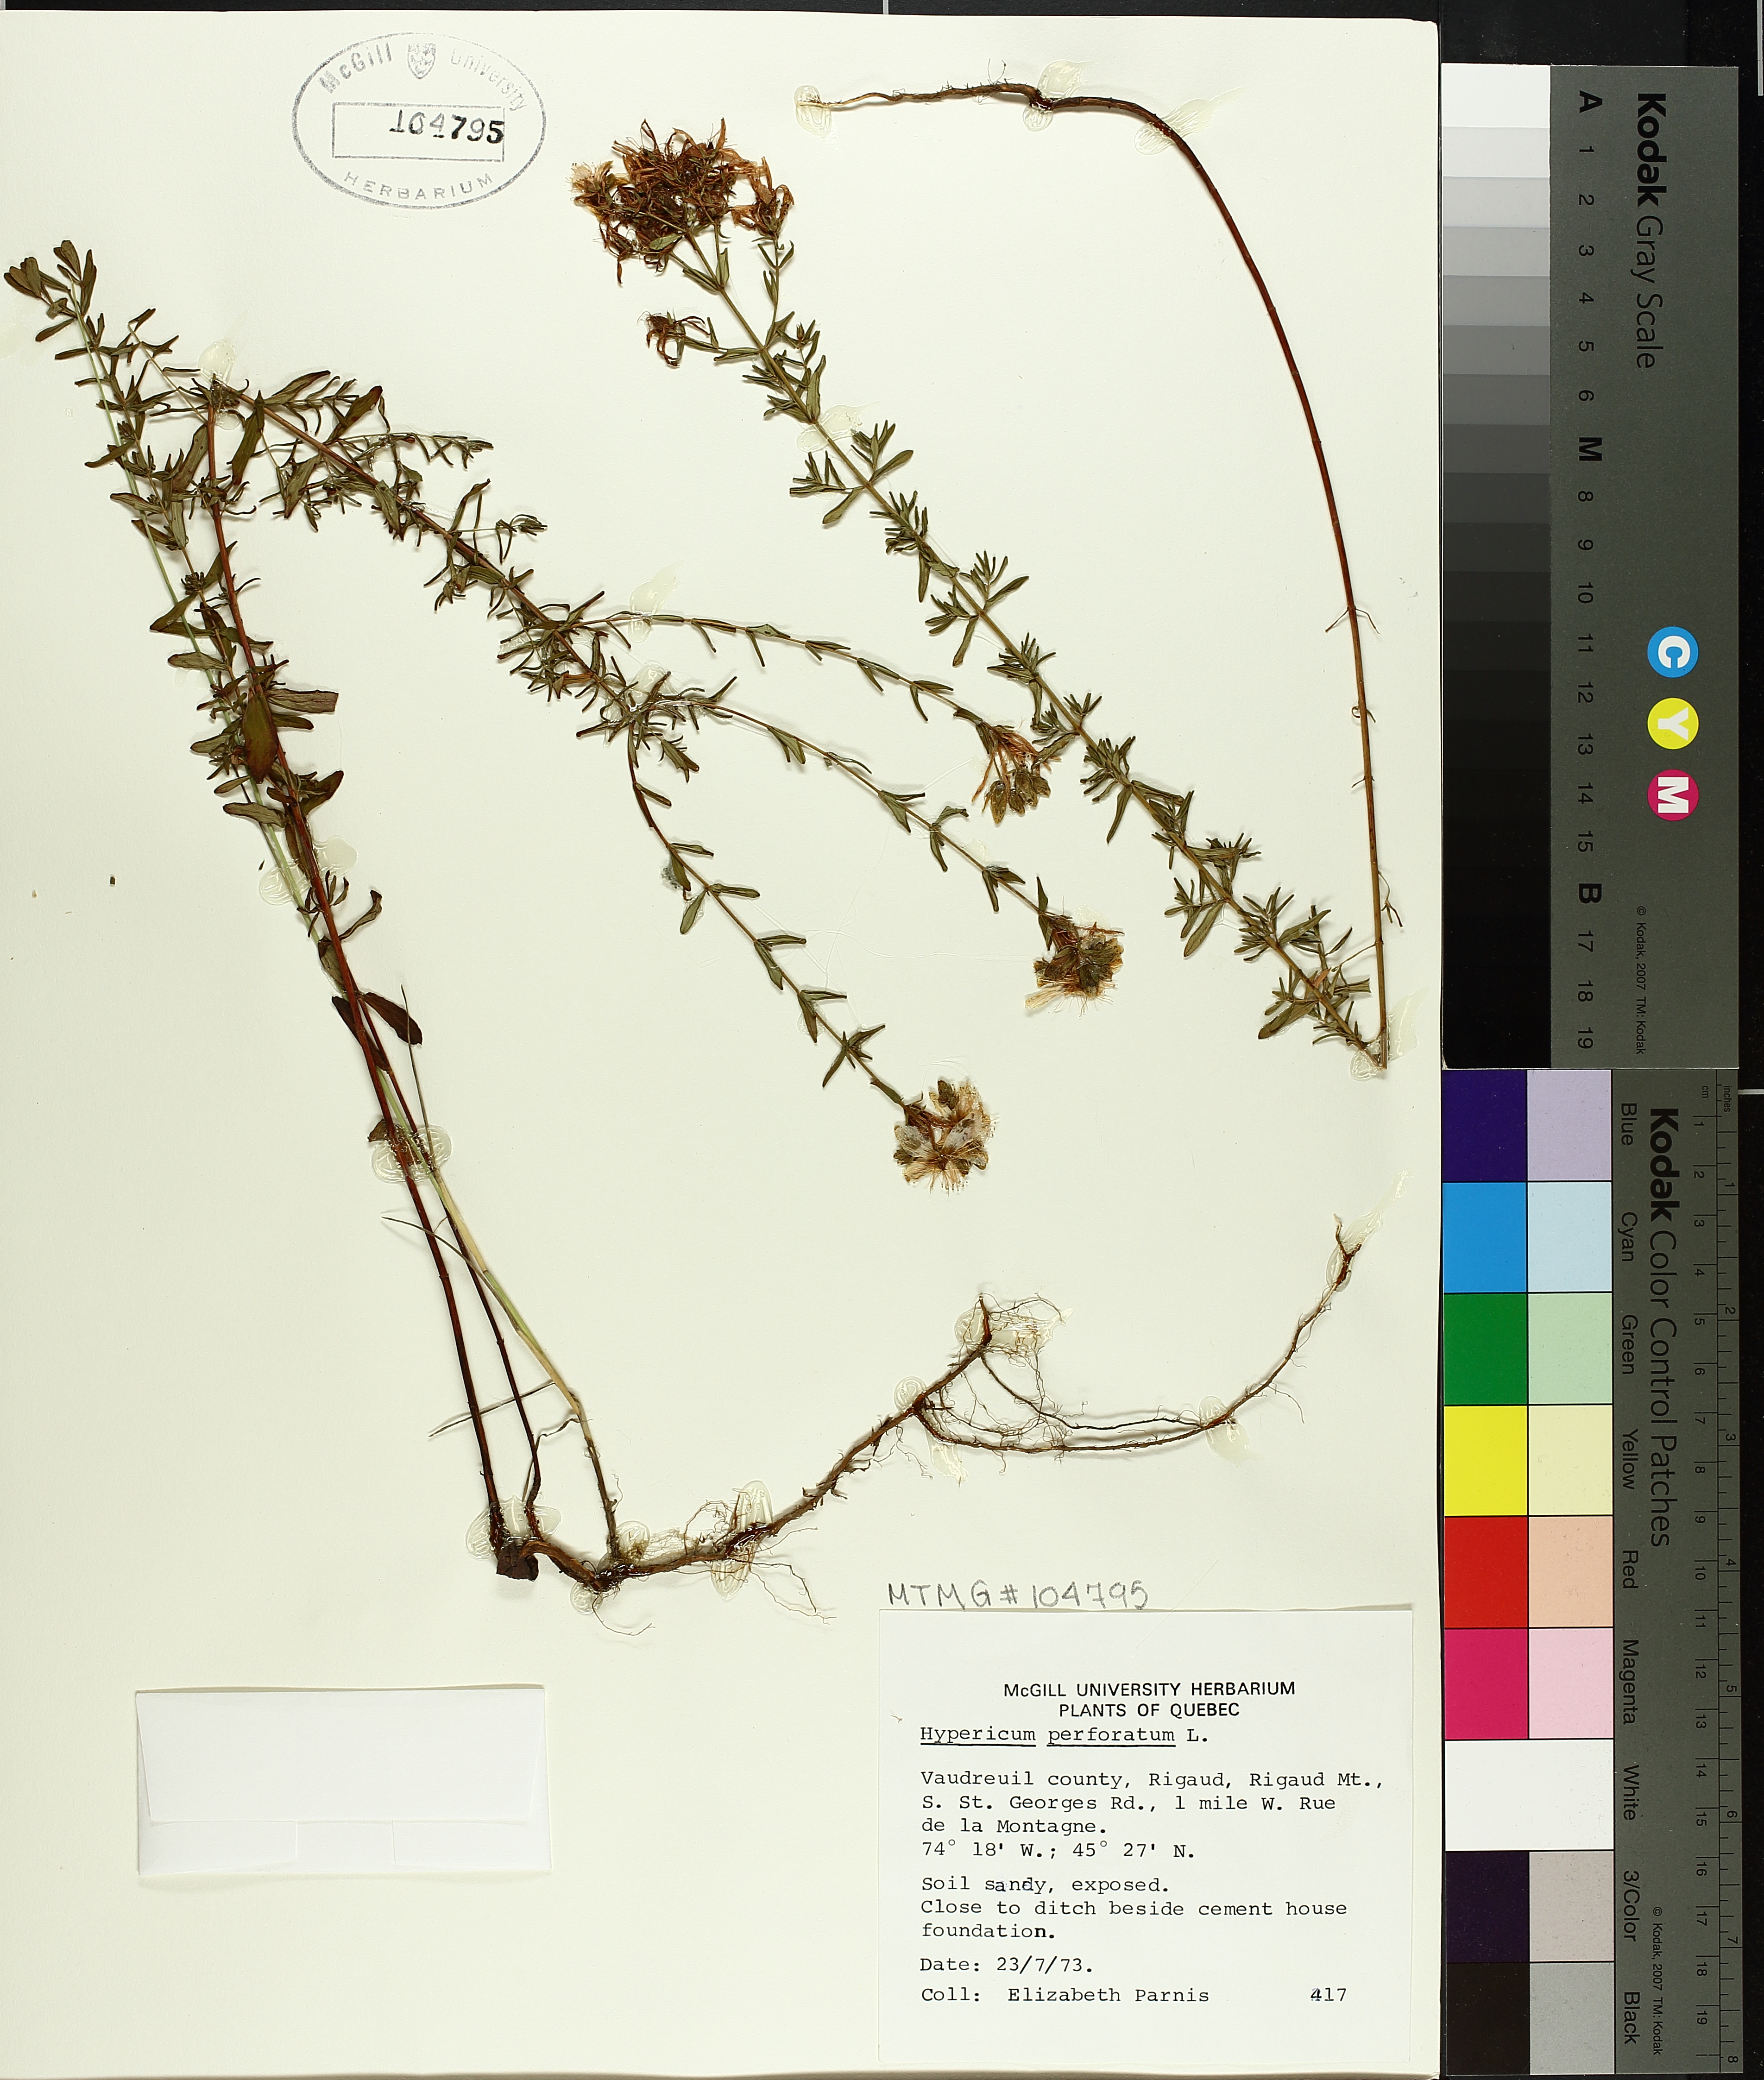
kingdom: Plantae
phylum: Tracheophyta
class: Magnoliopsida
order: Malpighiales
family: Hypericaceae
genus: Hypericum
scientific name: Hypericum perforatum
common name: Common st. johnswort
